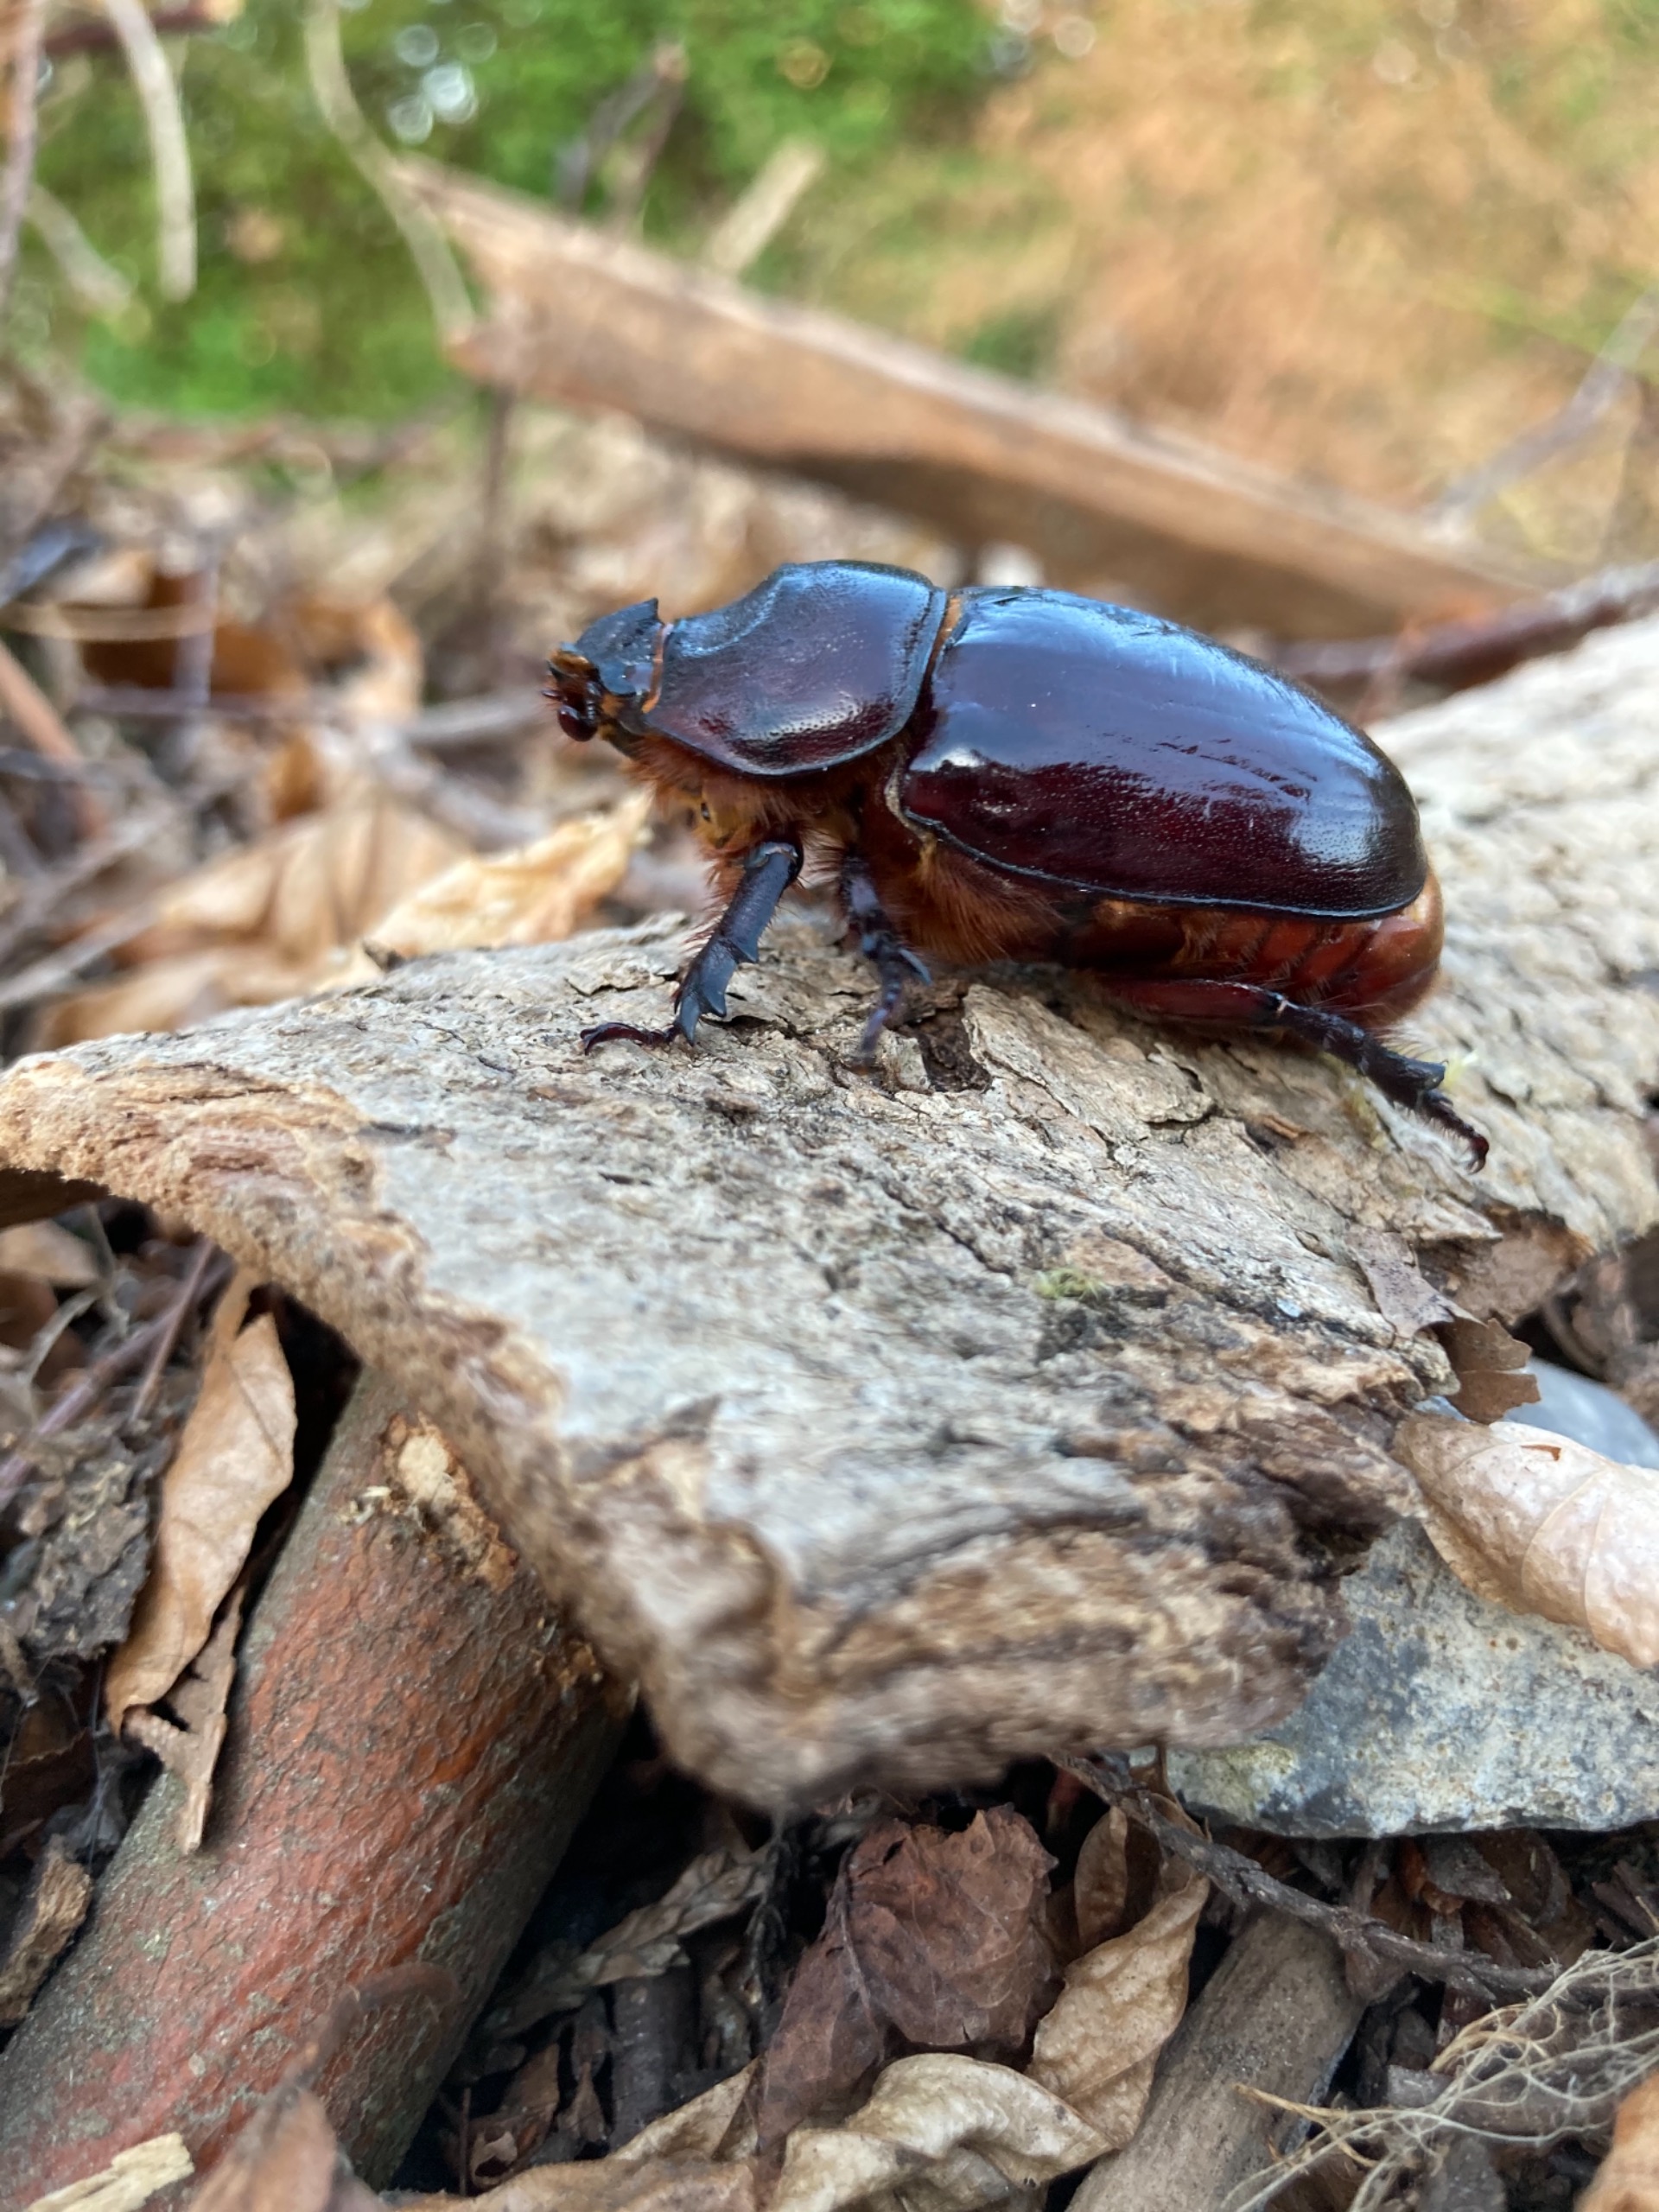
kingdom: Animalia
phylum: Arthropoda
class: Insecta
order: Coleoptera
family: Scarabaeidae
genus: Oryctes
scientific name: Oryctes nasicornis
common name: Næsehornsbille
